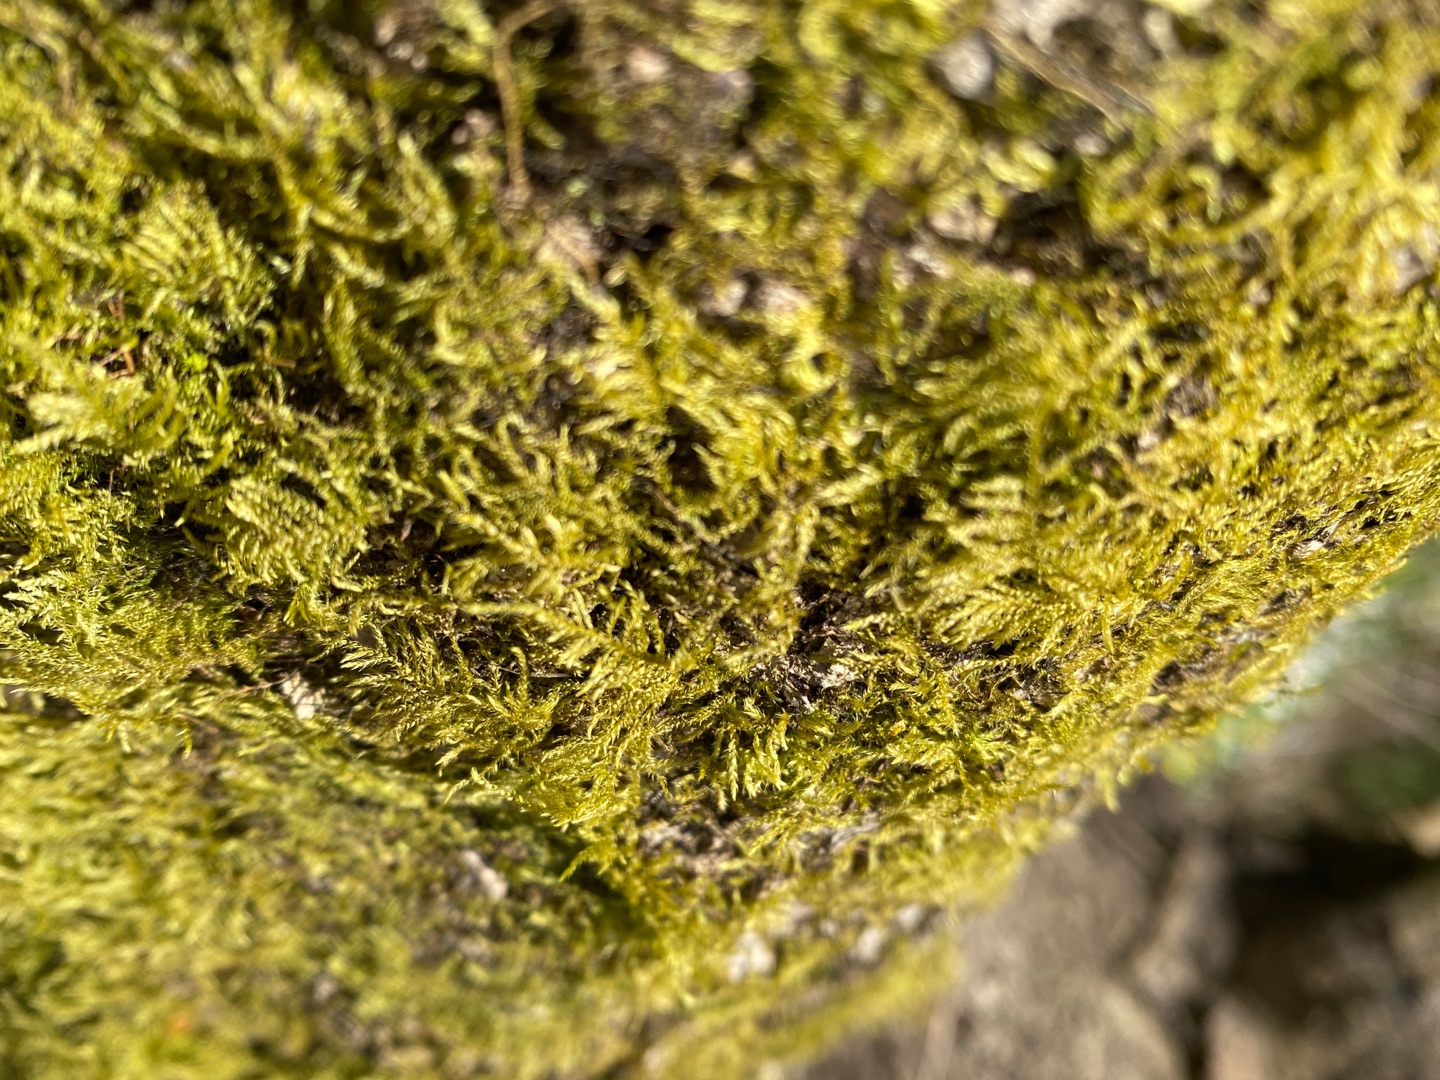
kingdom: Plantae
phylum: Bryophyta
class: Bryopsida
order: Hypnales
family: Brachytheciaceae
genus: Kindbergia
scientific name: Kindbergia praelonga
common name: Forskelligbladet vortetand
